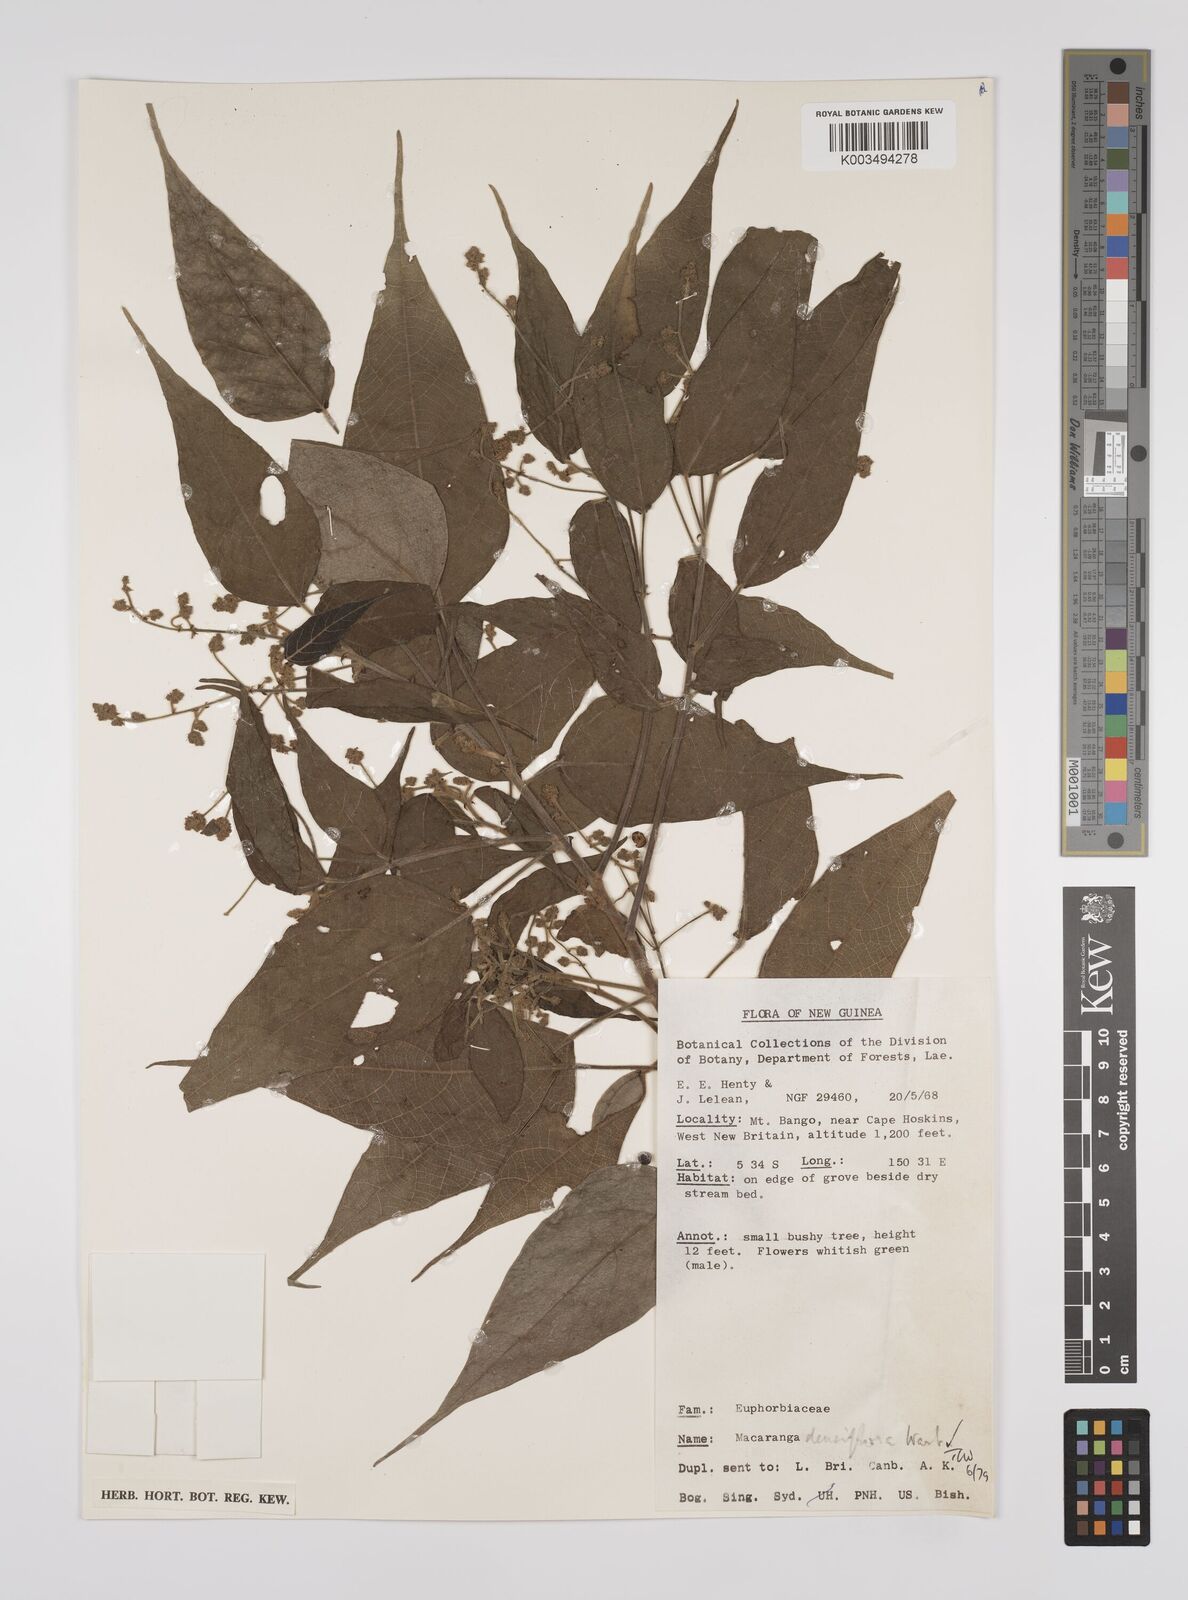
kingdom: Plantae
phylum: Tracheophyta
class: Magnoliopsida
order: Malpighiales
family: Euphorbiaceae
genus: Macaranga
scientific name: Macaranga densiflora
